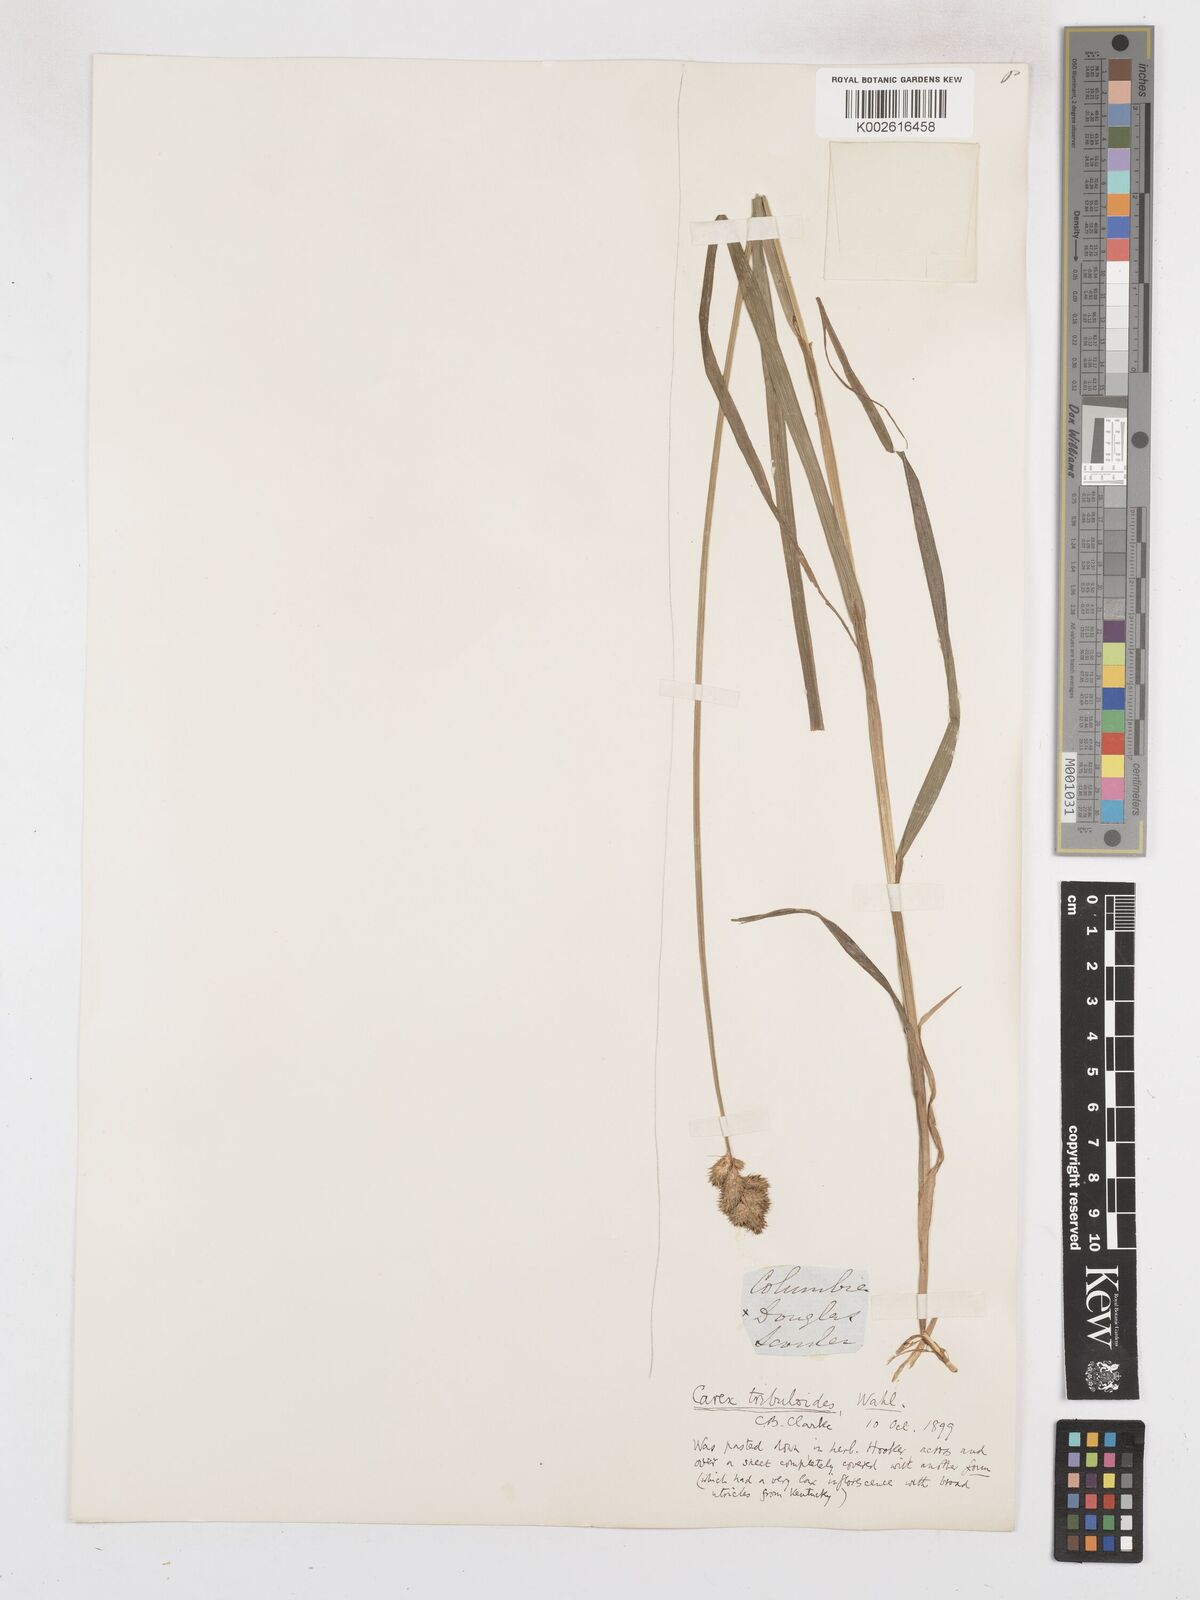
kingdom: Plantae
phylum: Tracheophyta
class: Liliopsida
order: Poales
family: Cyperaceae
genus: Carex
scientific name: Carex tribuloides
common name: Blunt broom sedge
